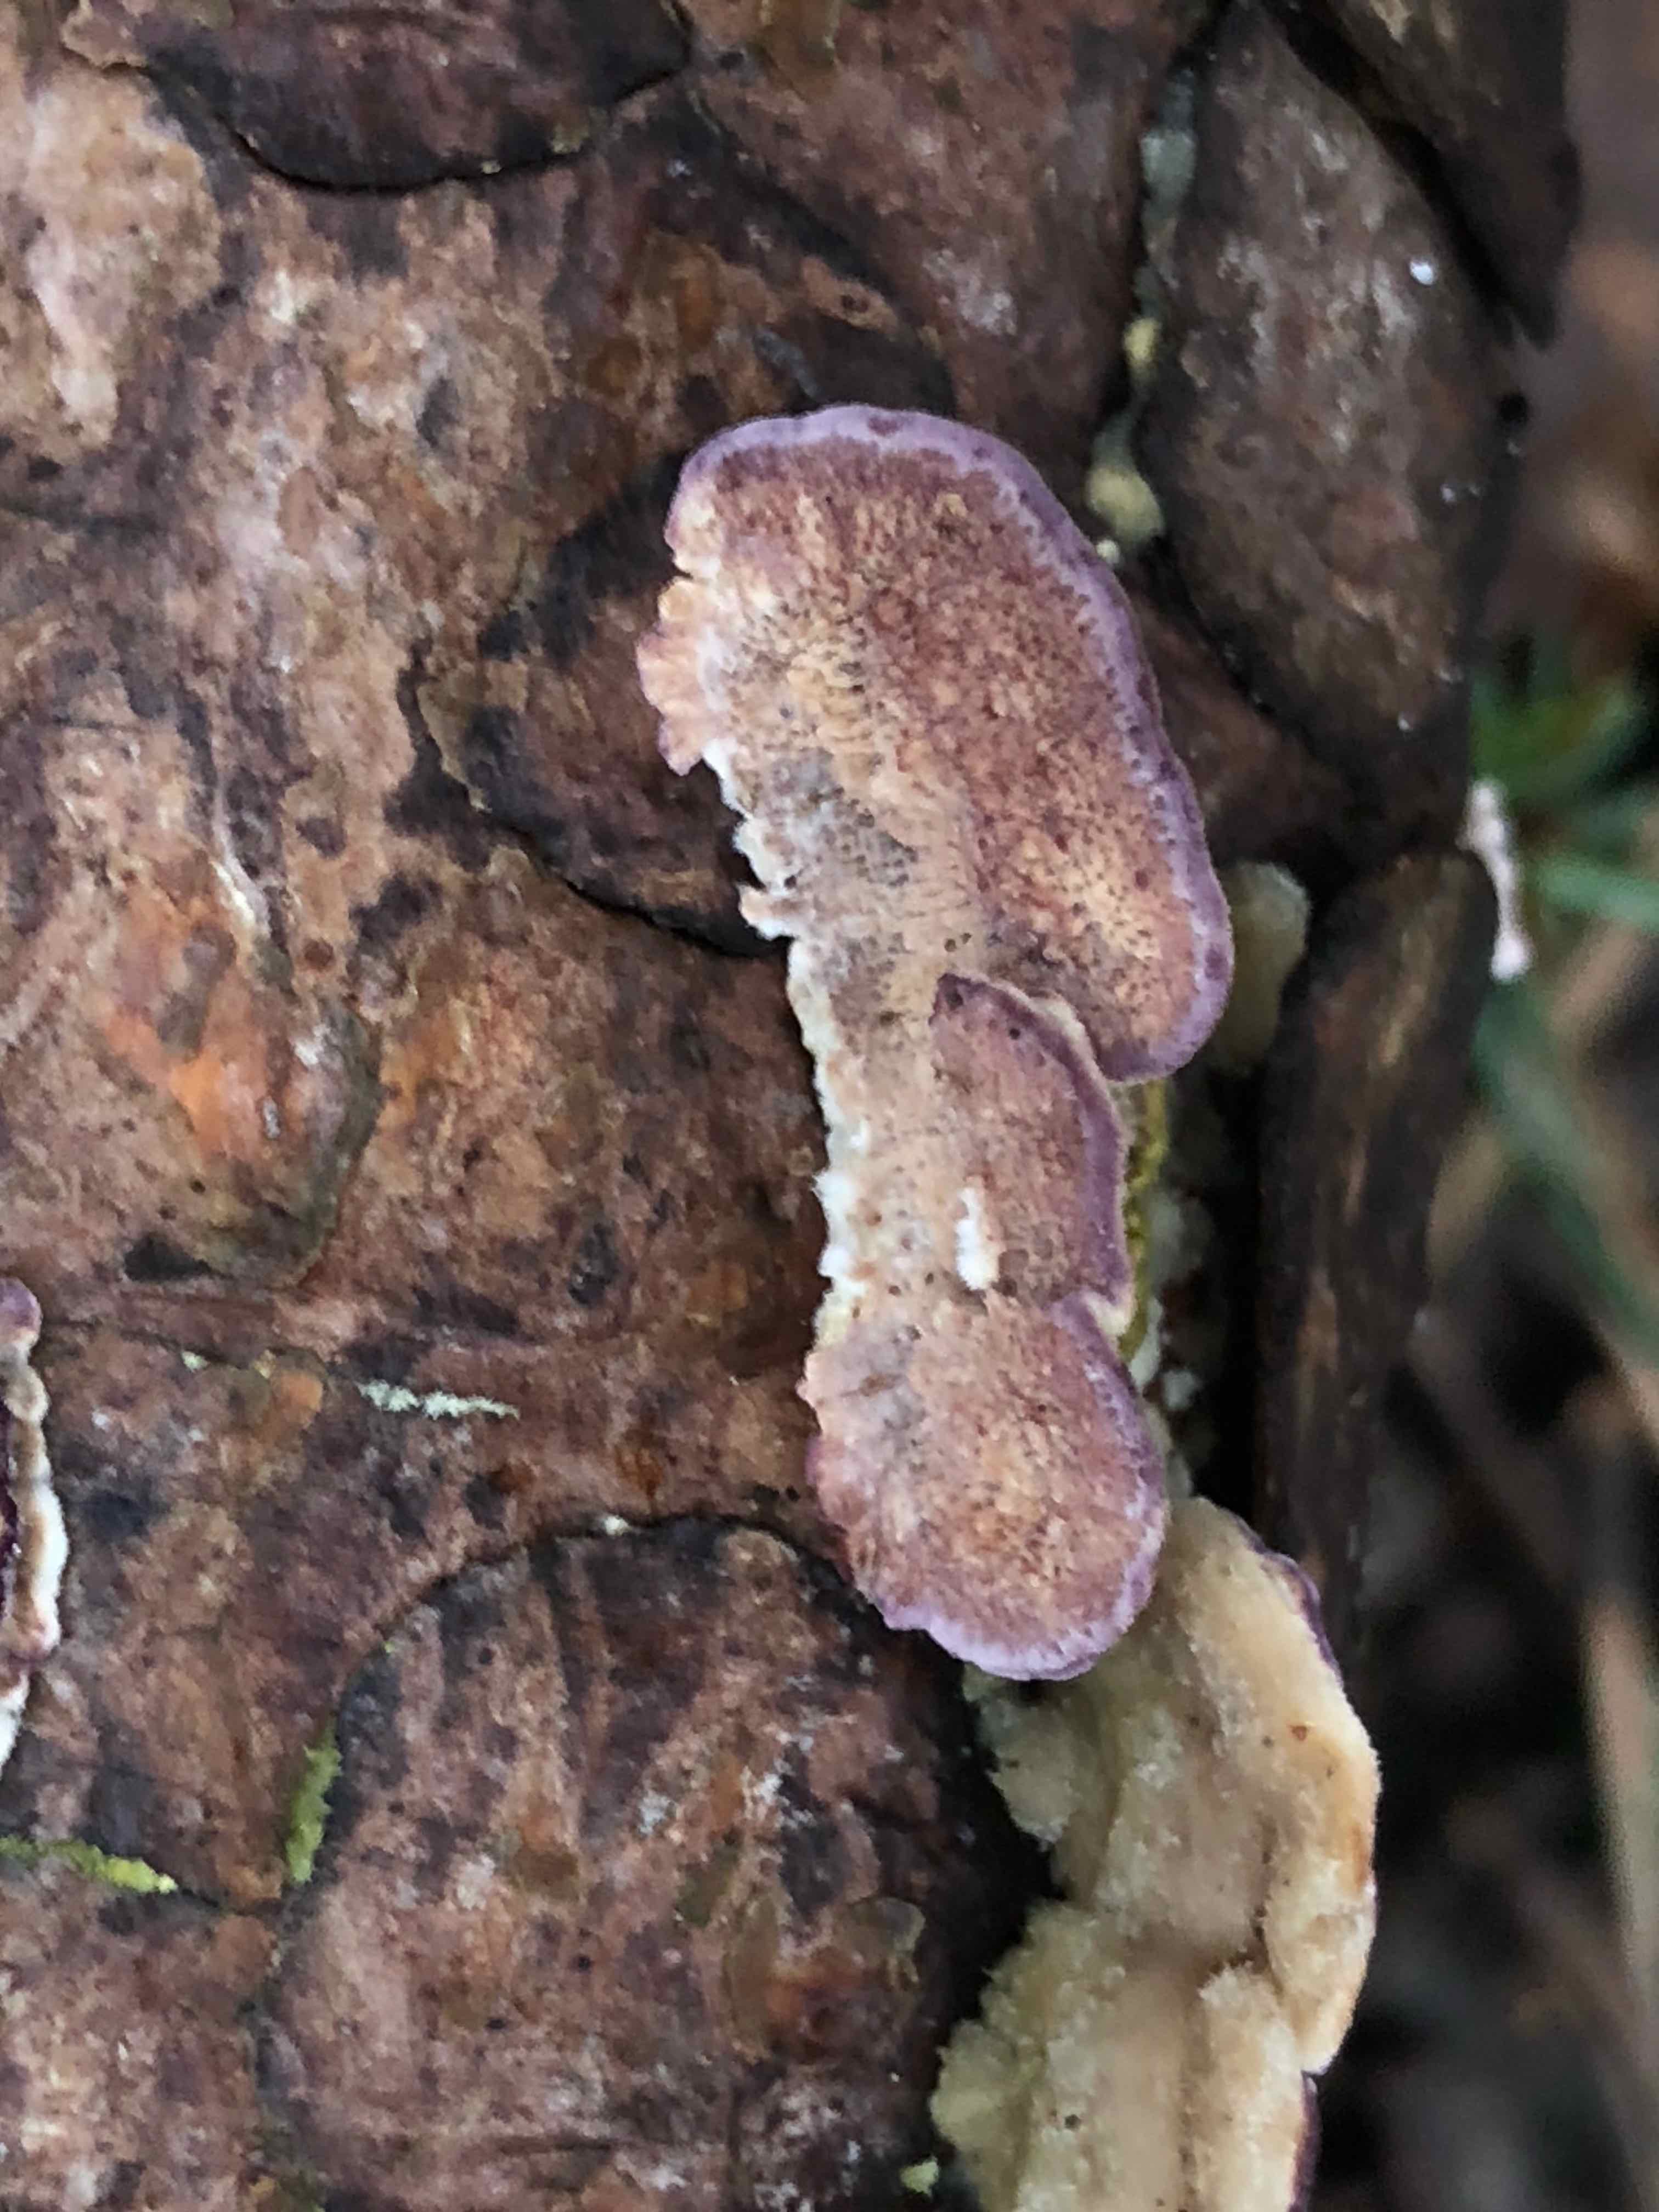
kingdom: Fungi
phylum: Basidiomycota
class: Agaricomycetes
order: Agaricales
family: Cyphellaceae
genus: Chondrostereum
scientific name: Chondrostereum purpureum
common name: purpurlædersvamp
